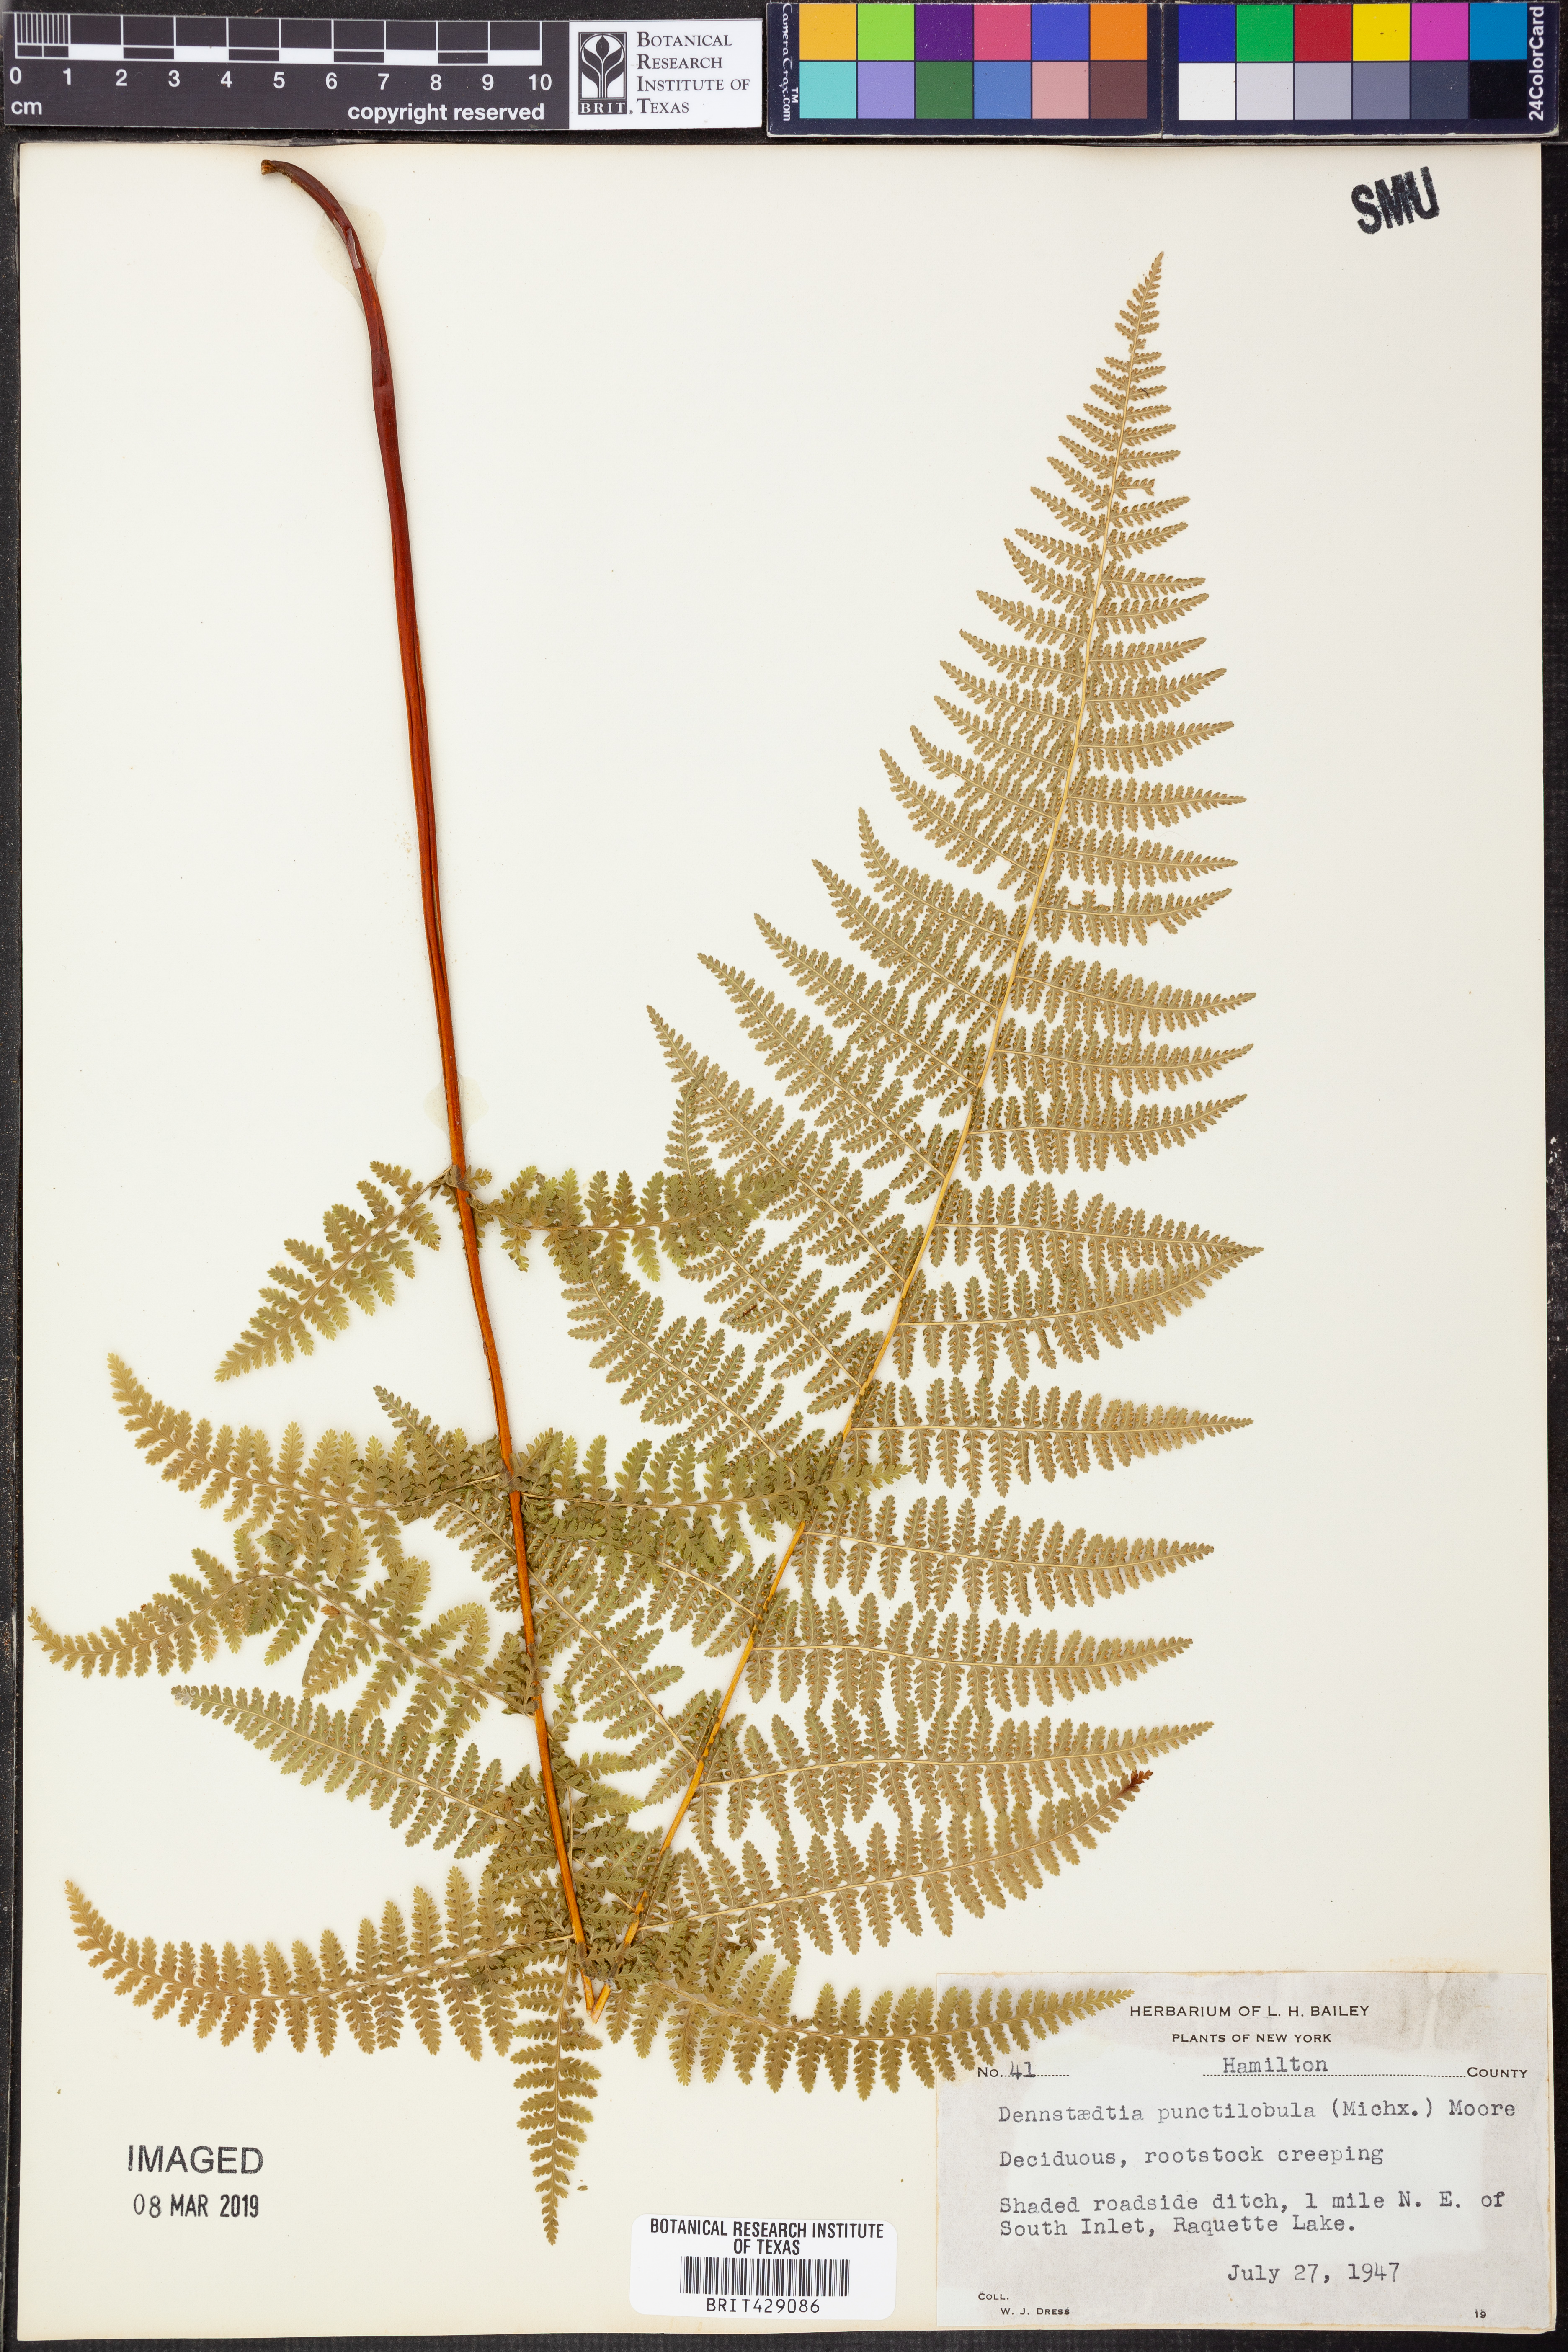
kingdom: Plantae
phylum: Tracheophyta
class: Polypodiopsida
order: Polypodiales
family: Dennstaedtiaceae
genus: Sitobolium
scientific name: Sitobolium punctilobum
